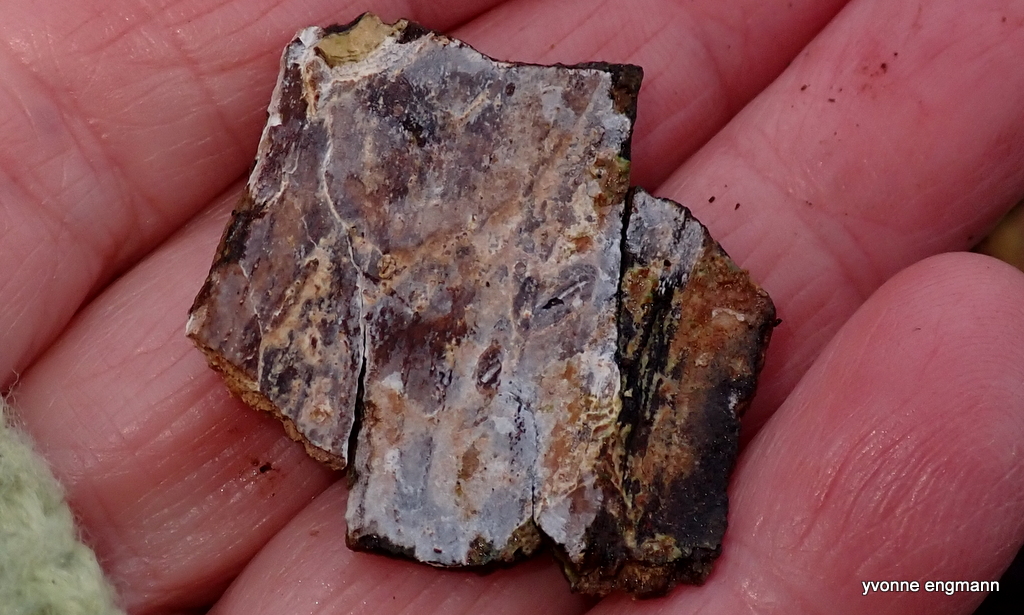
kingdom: Fungi
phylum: Basidiomycota
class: Agaricomycetes
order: Agaricales
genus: Dendrothele
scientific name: Dendrothele acerina
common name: navr-kalkplet
